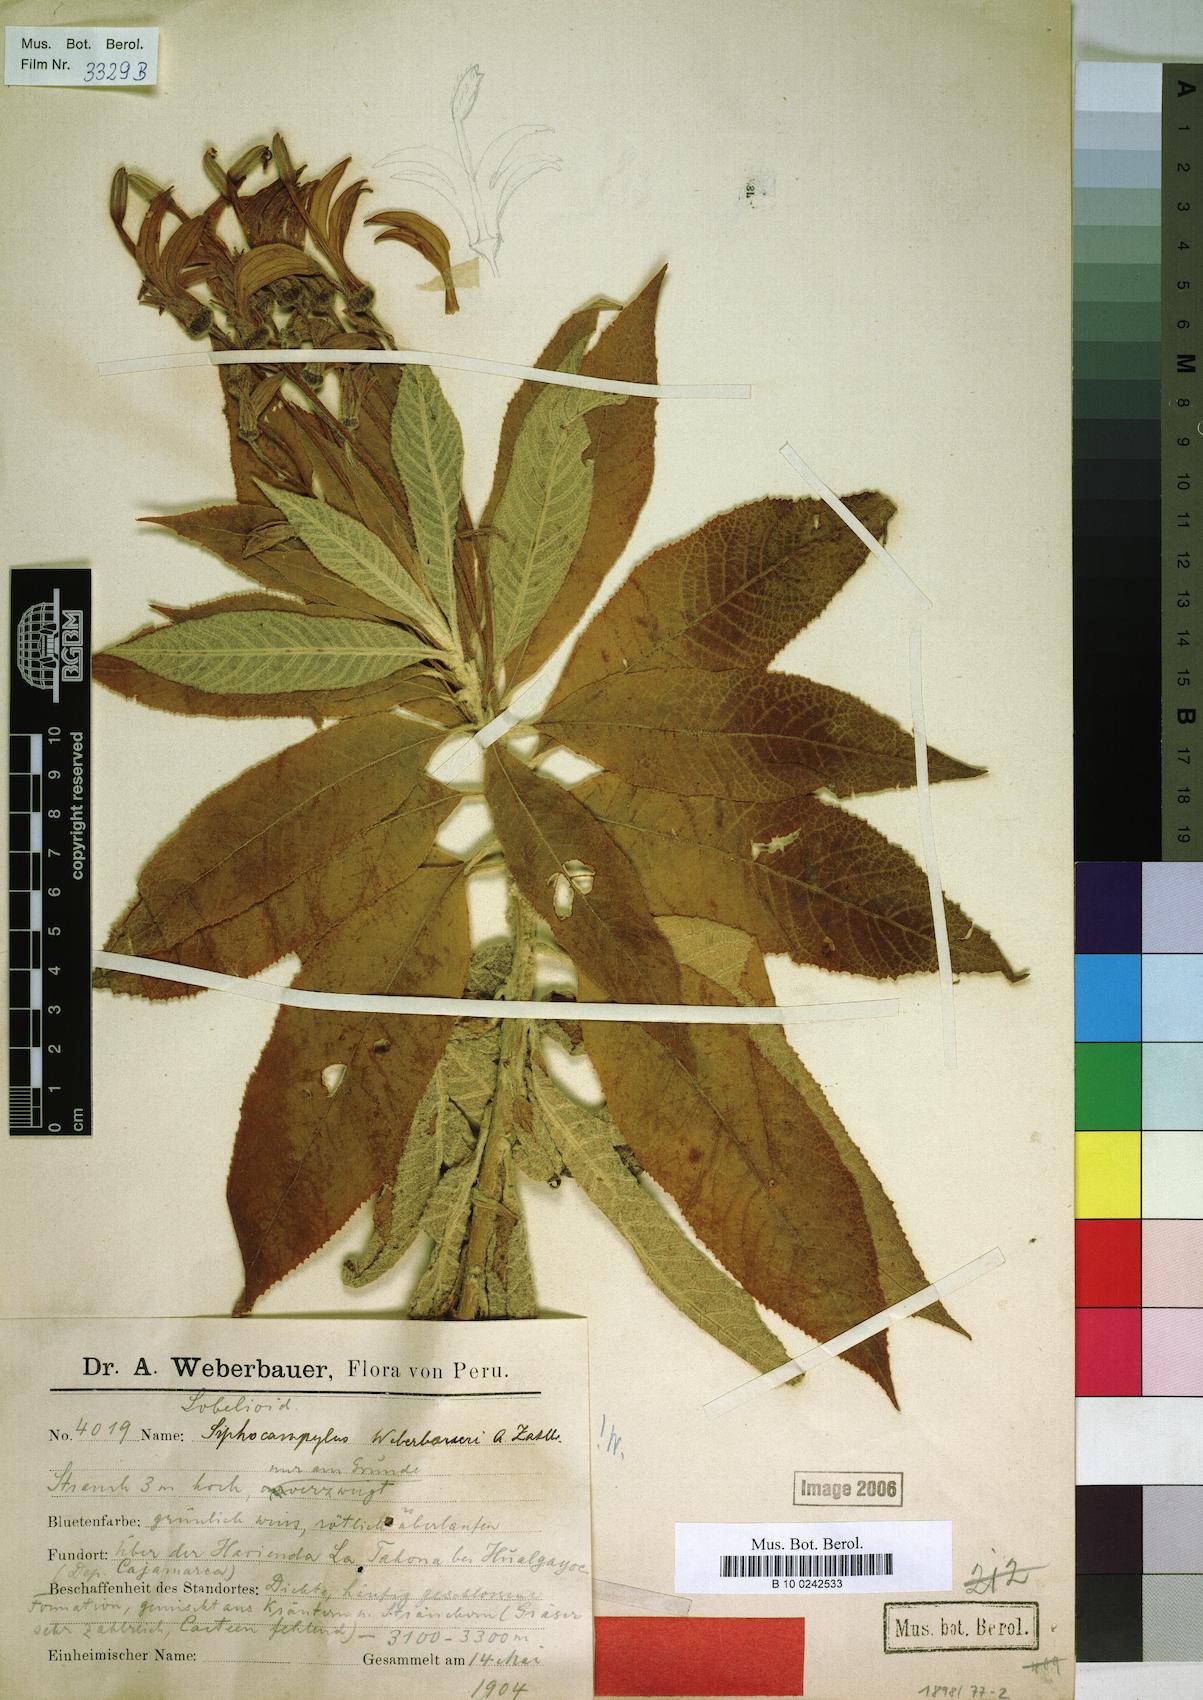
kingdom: Plantae
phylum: Tracheophyta
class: Magnoliopsida
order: Asterales
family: Campanulaceae
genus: Siphocampylus
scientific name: Siphocampylus weberbaueri
